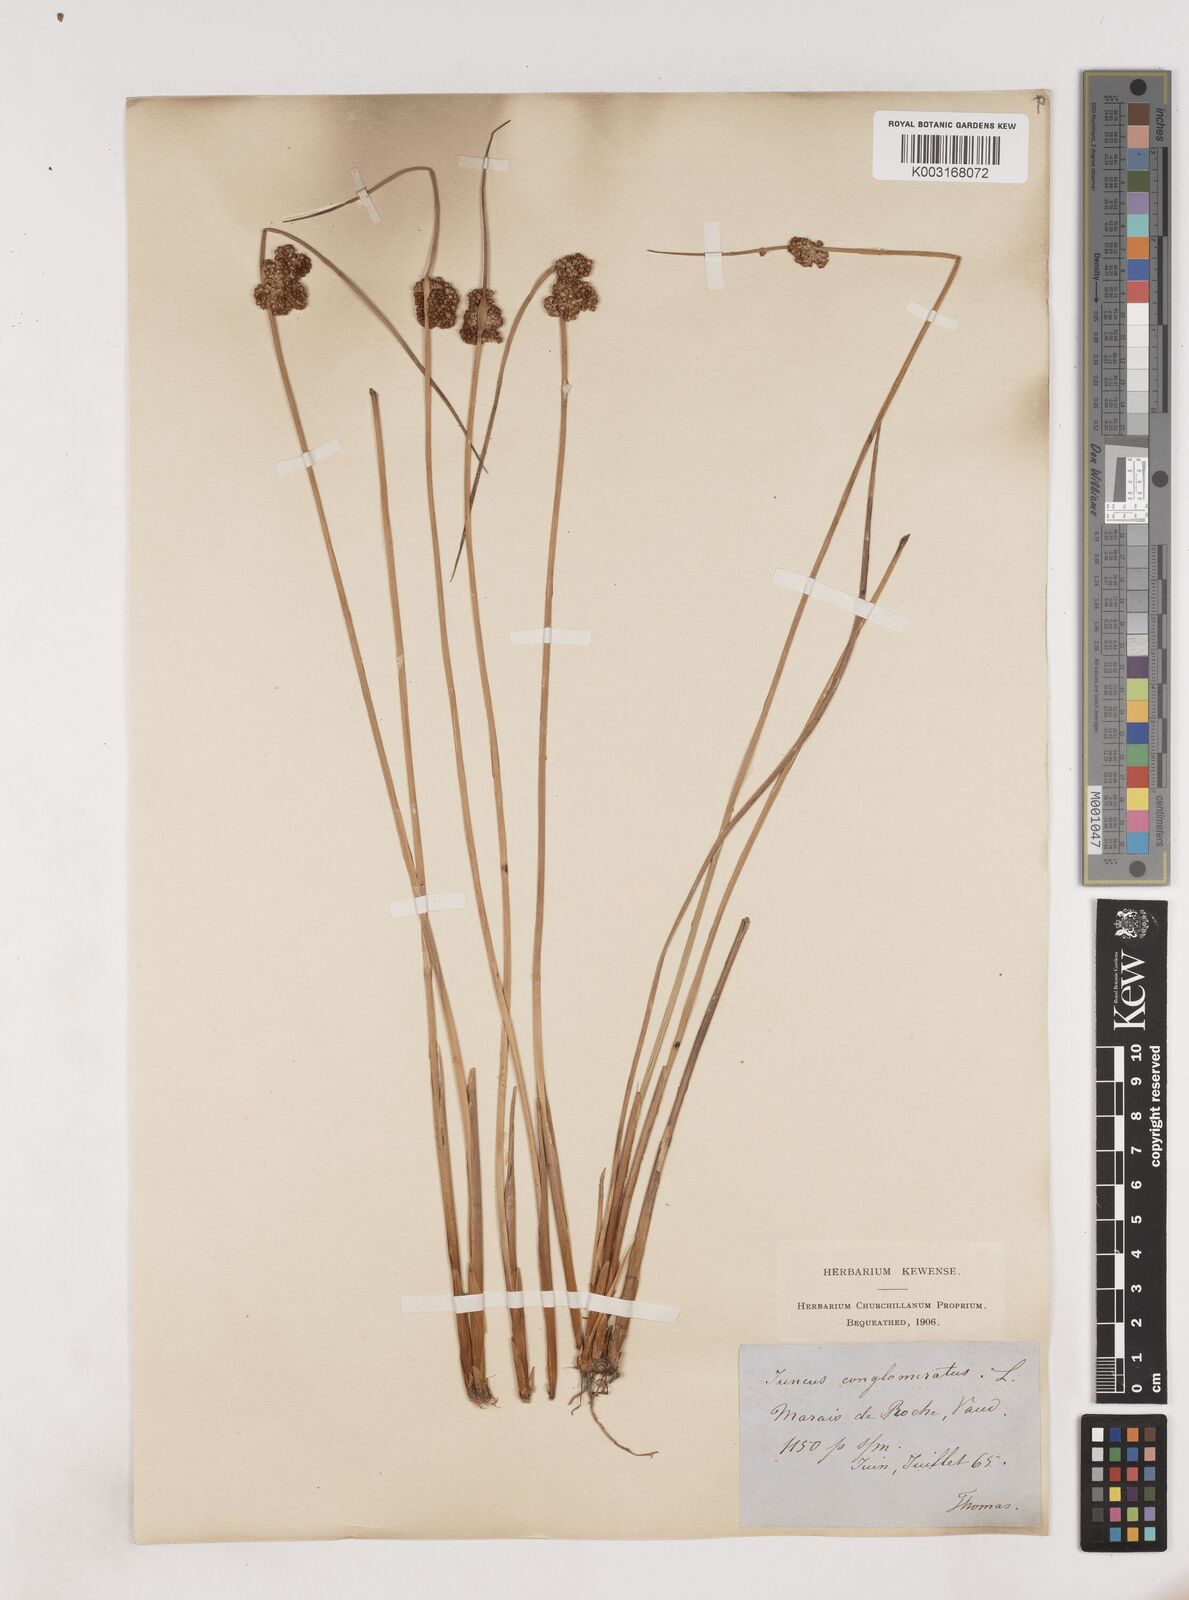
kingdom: Plantae
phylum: Tracheophyta
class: Liliopsida
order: Poales
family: Juncaceae
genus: Juncus
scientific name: Juncus conglomeratus
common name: Compact rush
